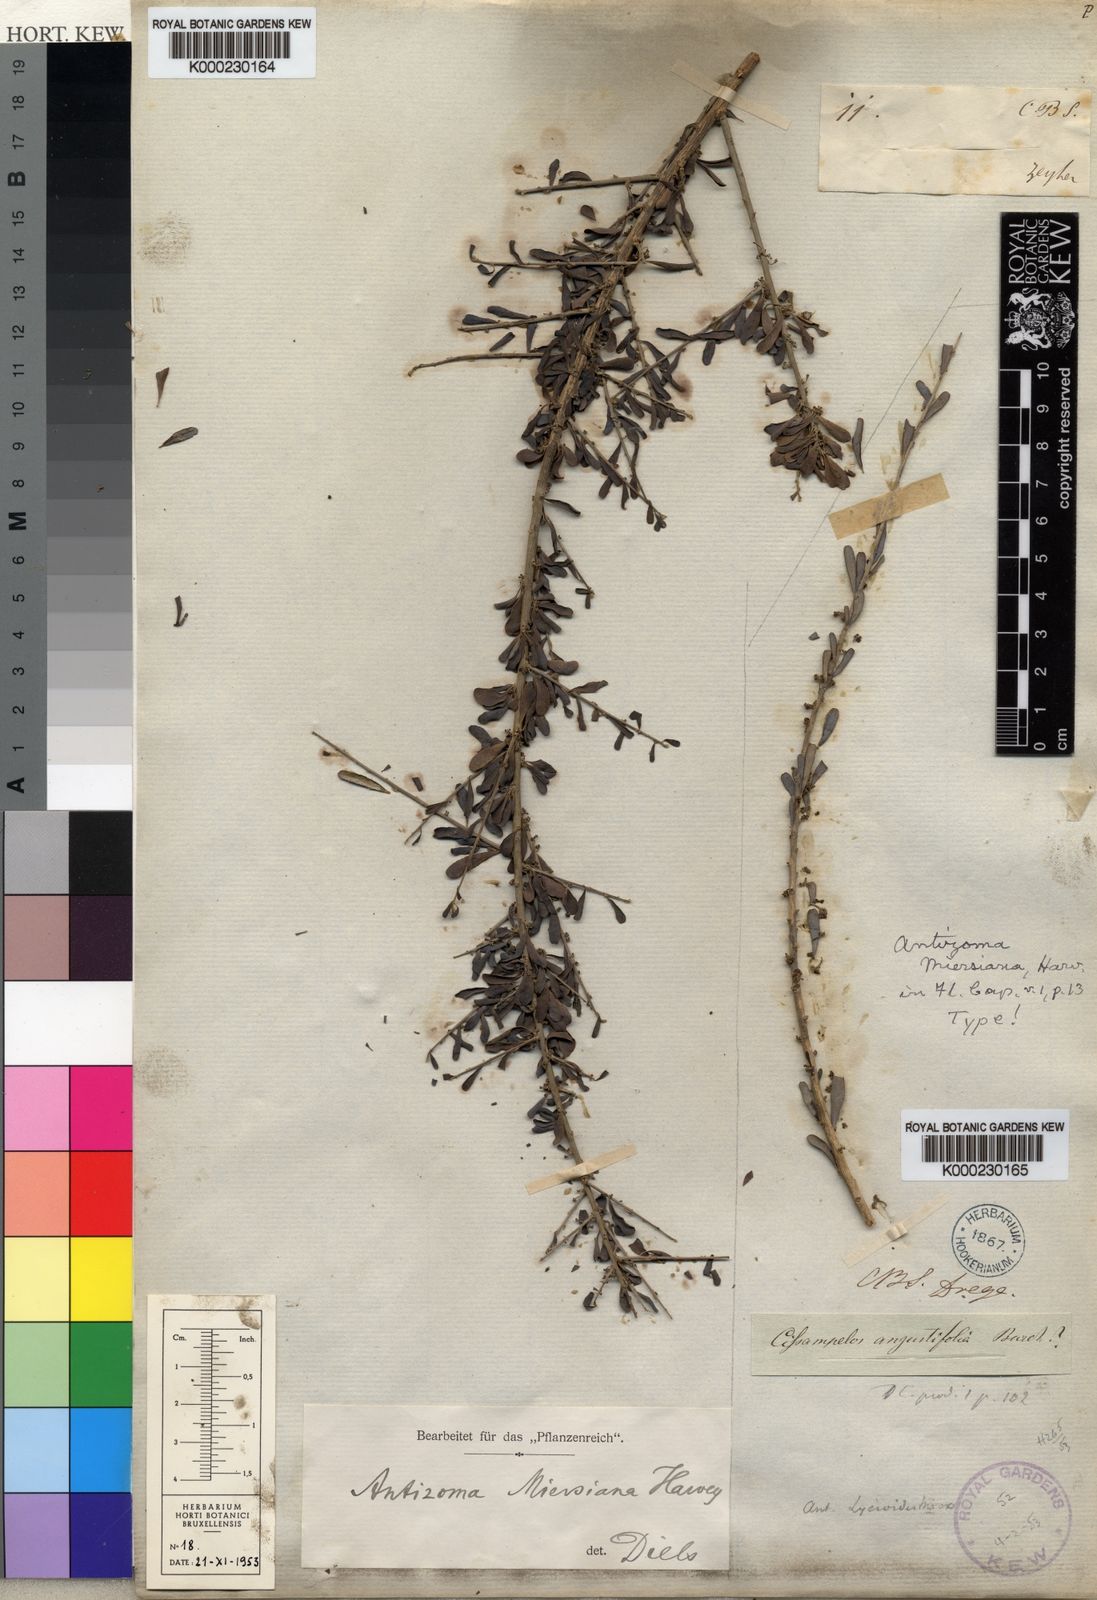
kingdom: Plantae
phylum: Tracheophyta
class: Magnoliopsida
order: Ranunculales
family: Menispermaceae
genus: Antizoma
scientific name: Antizoma miersiana
